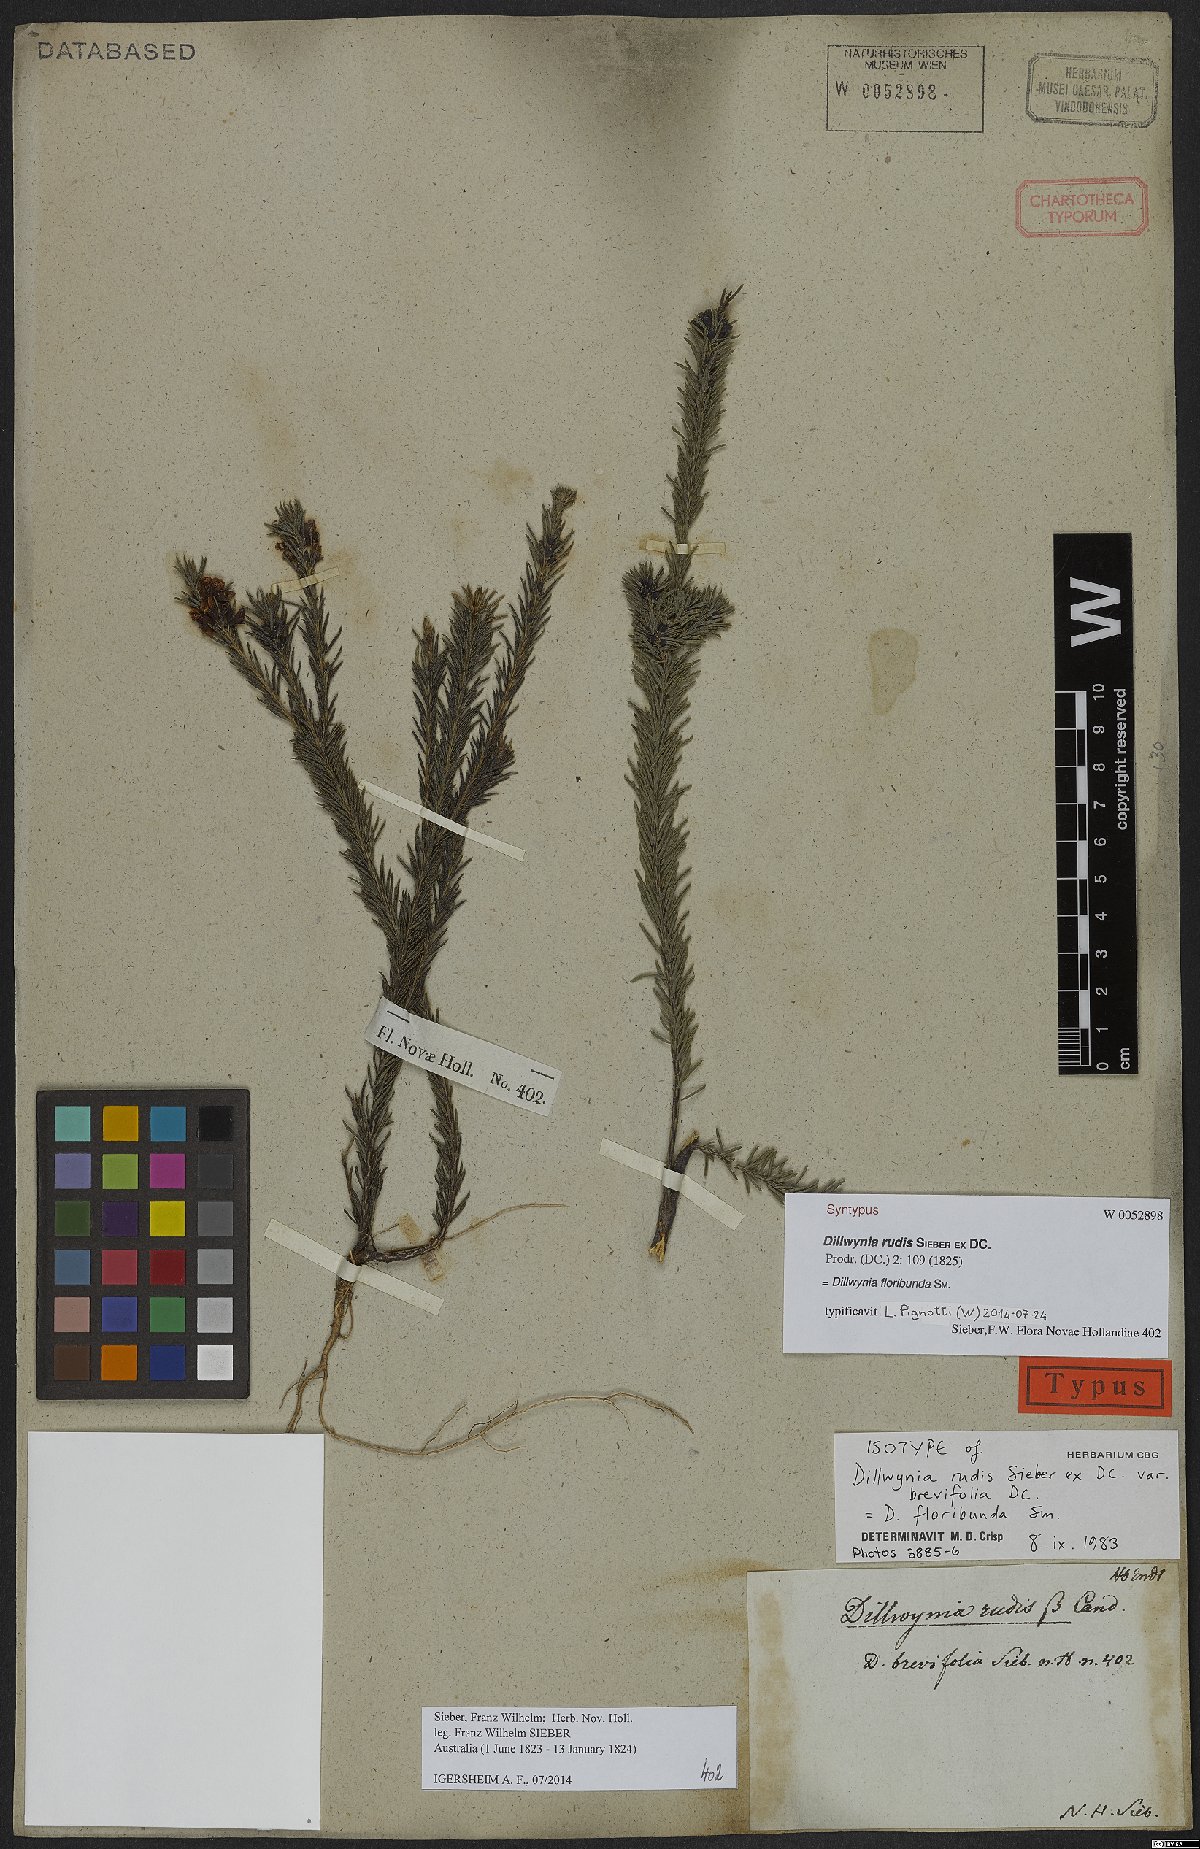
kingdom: Plantae
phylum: Tracheophyta
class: Magnoliopsida
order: Fabales
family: Fabaceae
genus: Dillwynia
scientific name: Dillwynia floribunda
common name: Eggs-and-bacon
